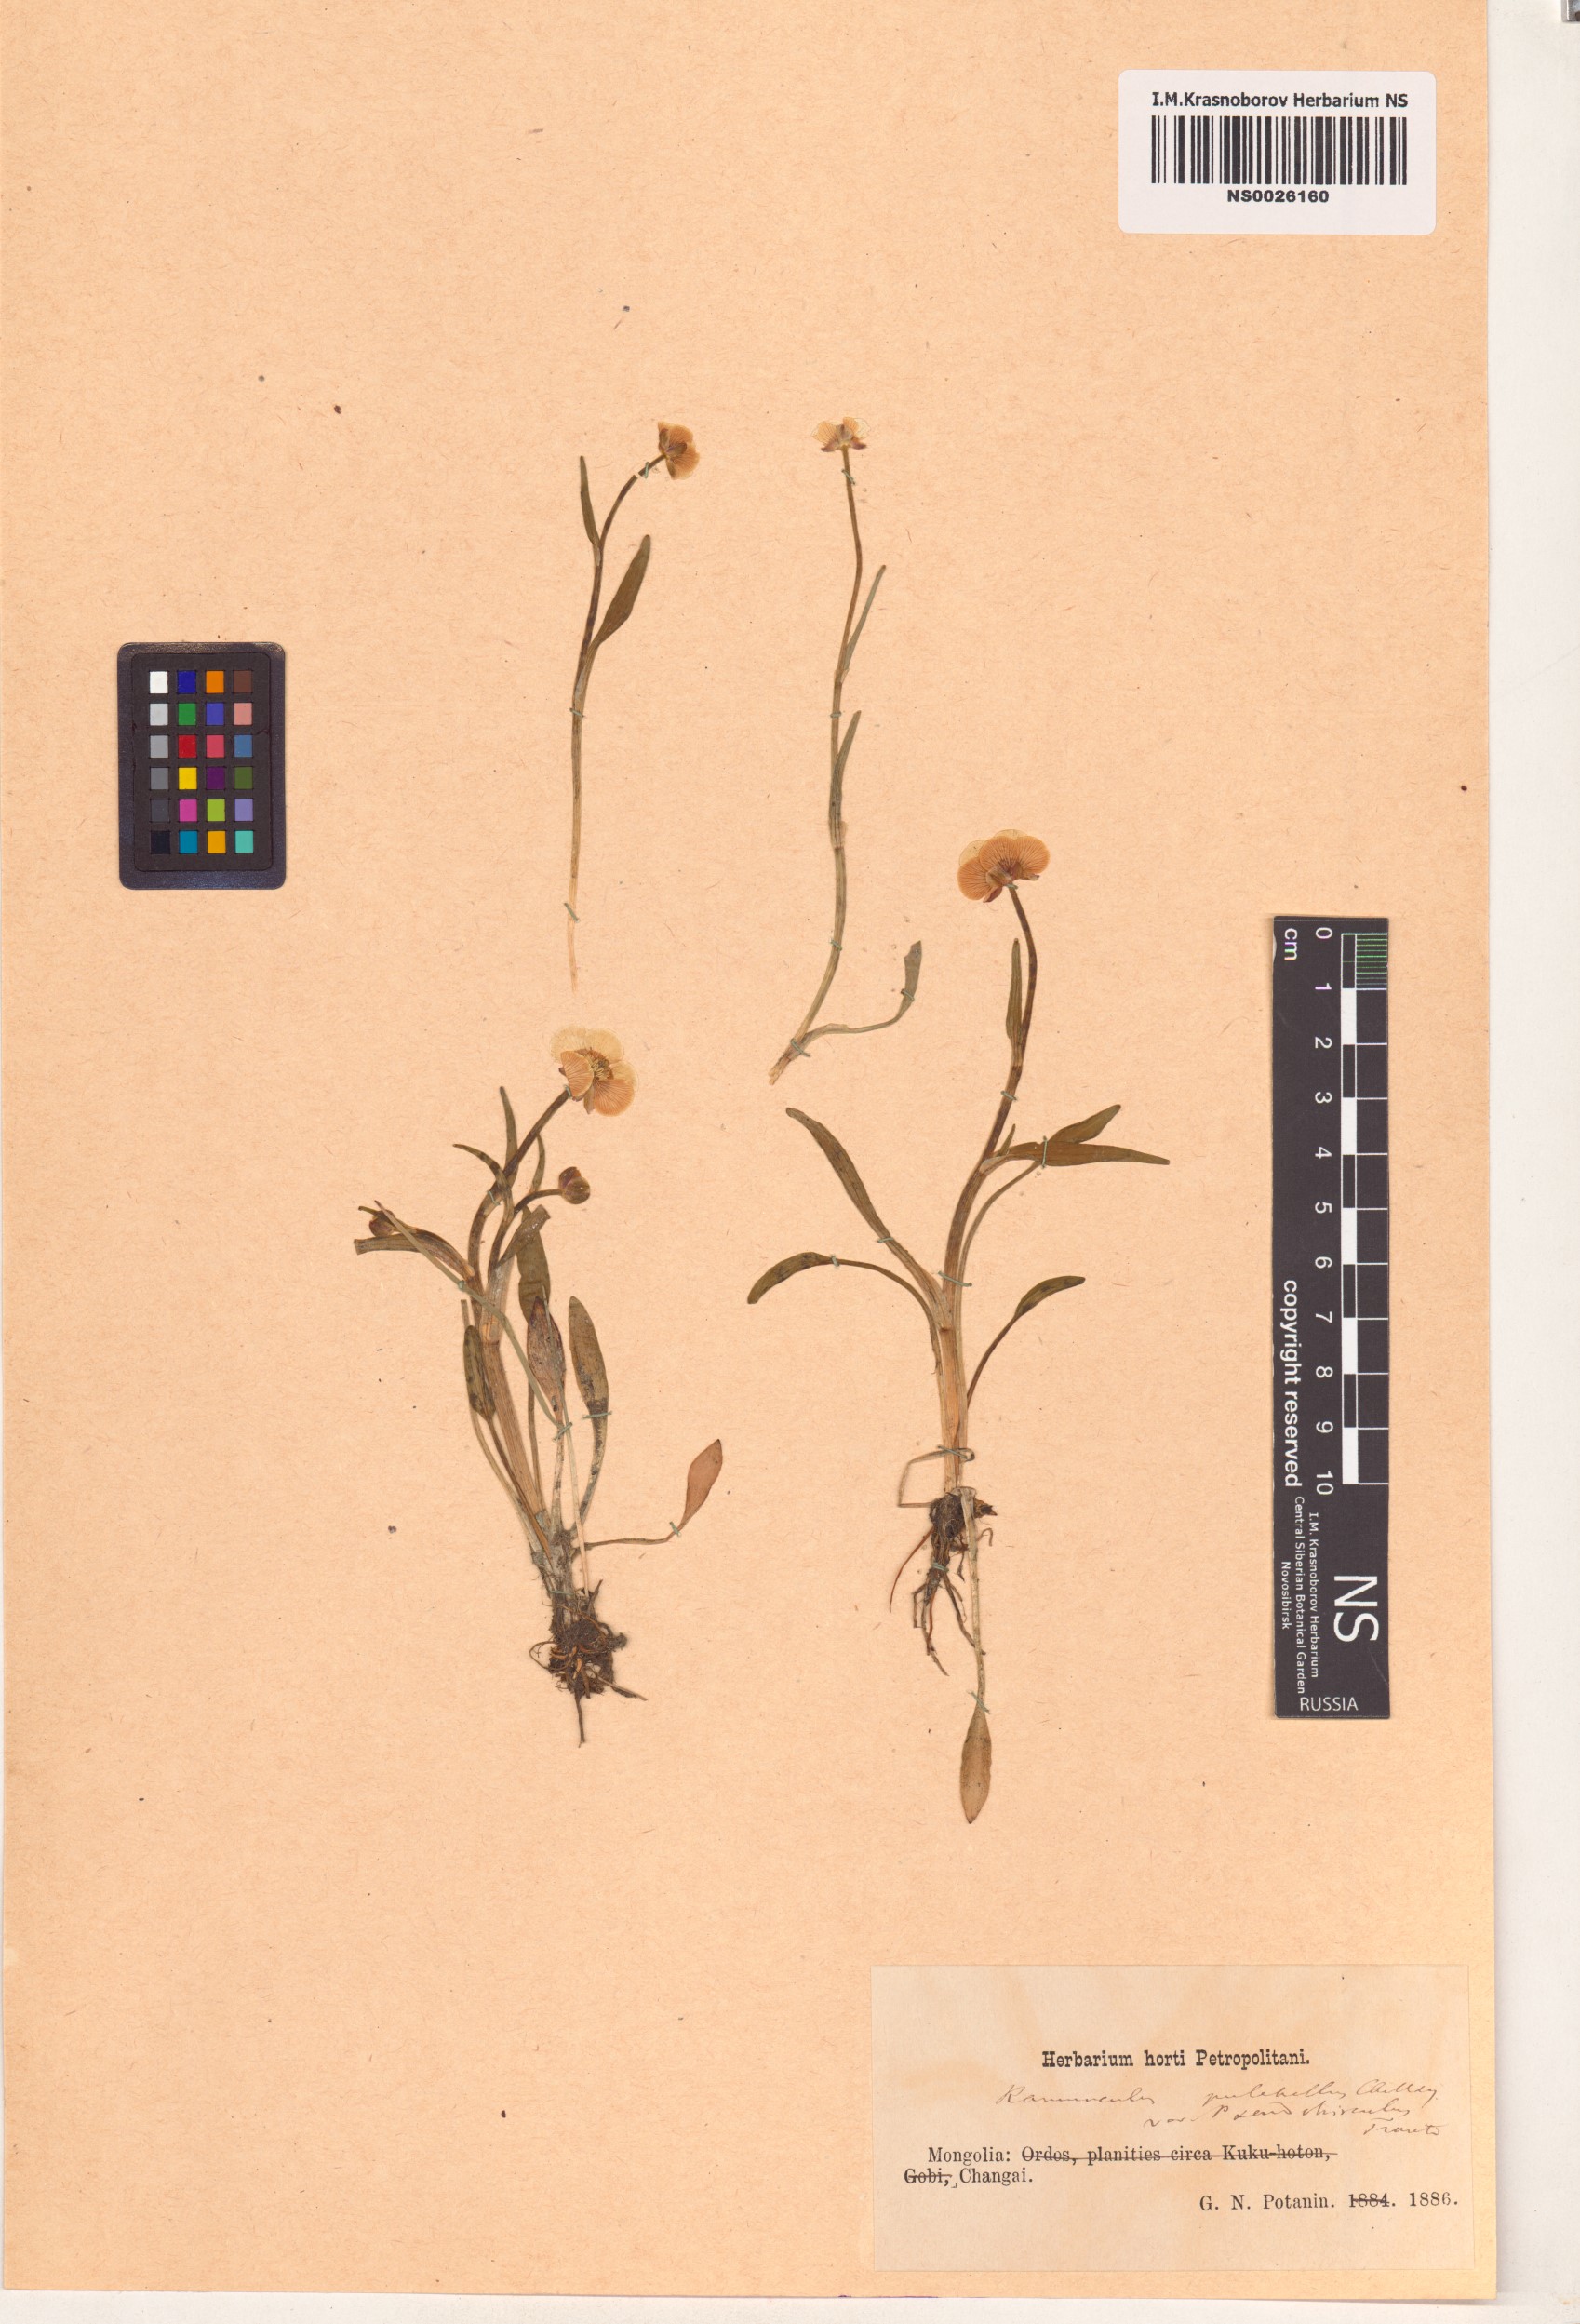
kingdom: Plantae
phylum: Tracheophyta
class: Magnoliopsida
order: Ranunculales
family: Ranunculaceae
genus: Ranunculus
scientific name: Ranunculus pseudohirculus
